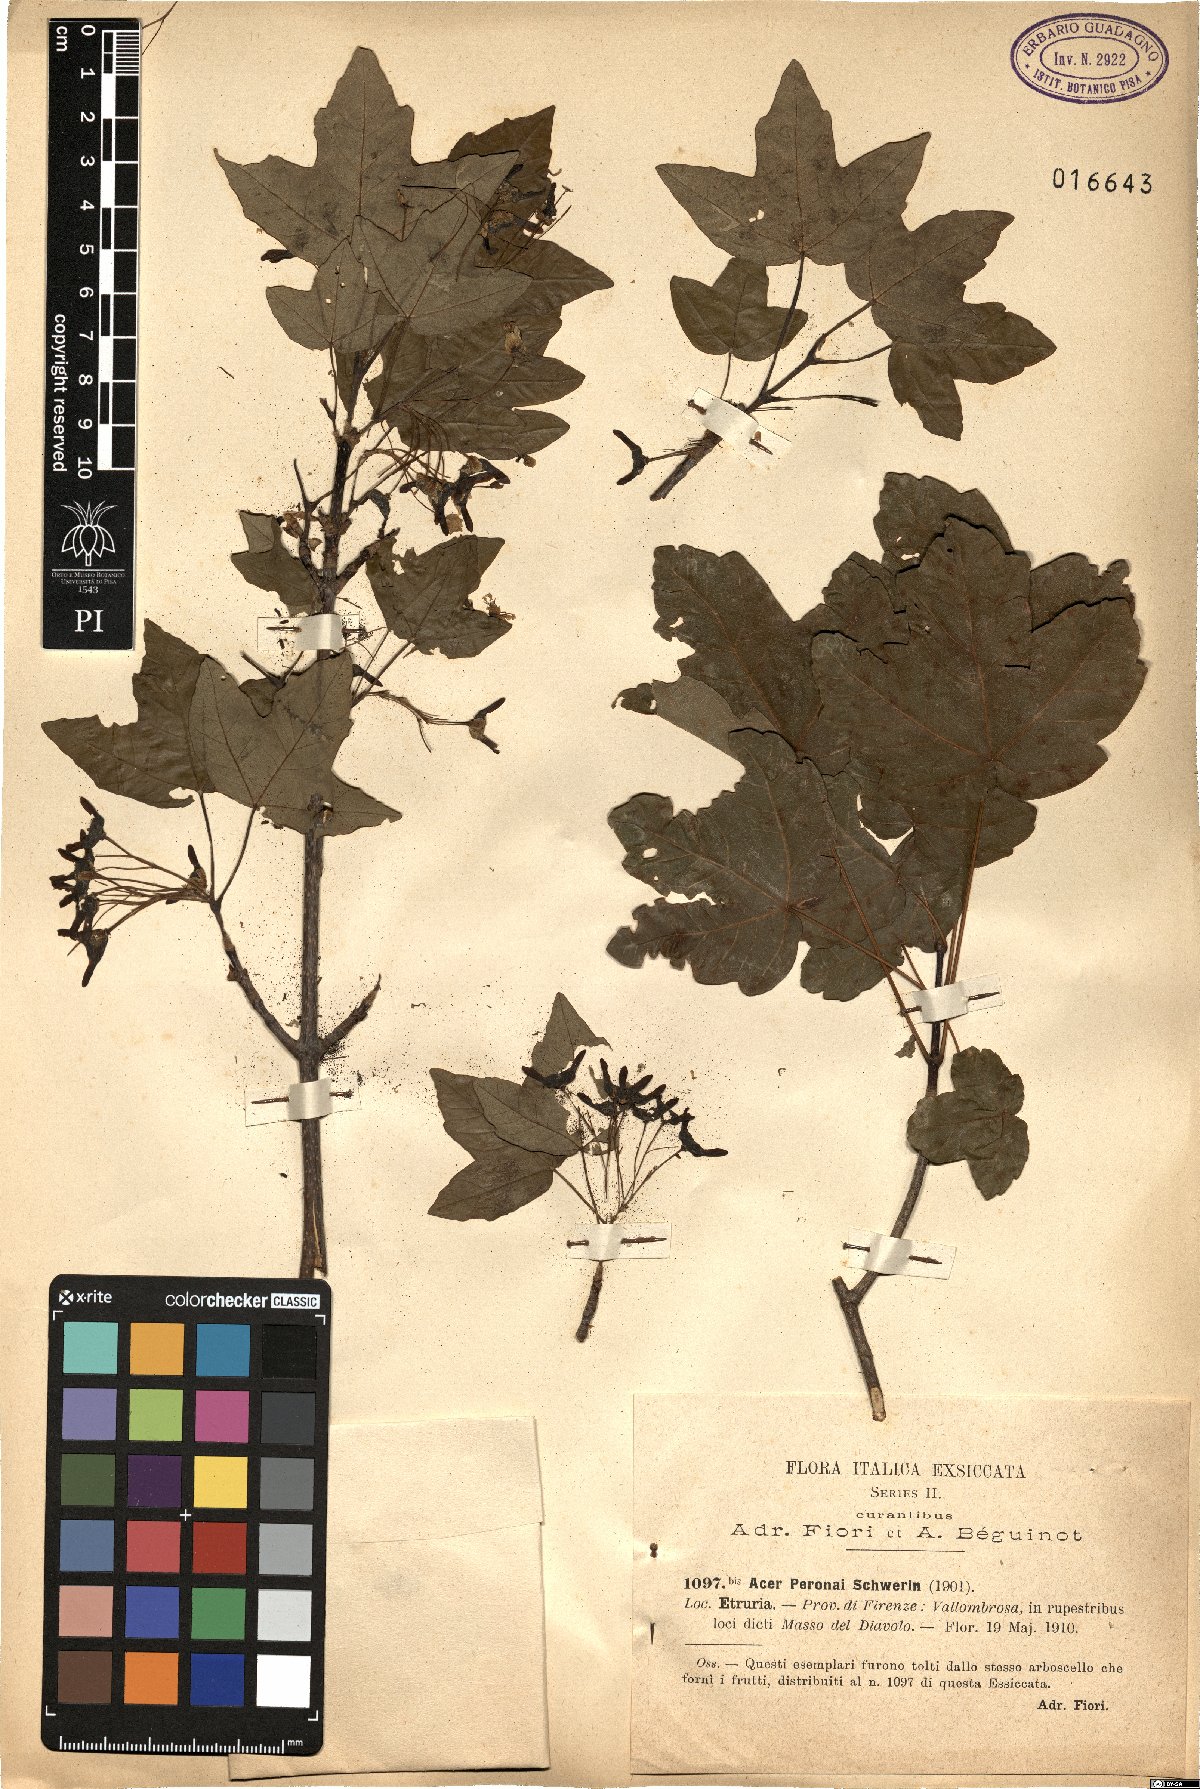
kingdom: Plantae
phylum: Tracheophyta
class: Magnoliopsida
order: Sapindales
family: Aceraceae
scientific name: Aceraceae
